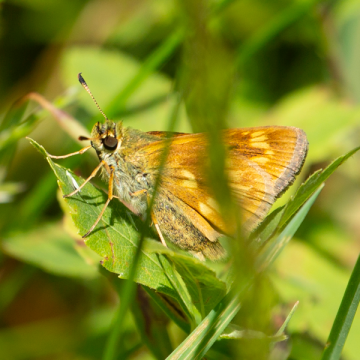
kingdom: Animalia
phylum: Arthropoda
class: Insecta
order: Lepidoptera
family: Hesperiidae
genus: Polites
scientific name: Polites
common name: Long Dash Skipper
